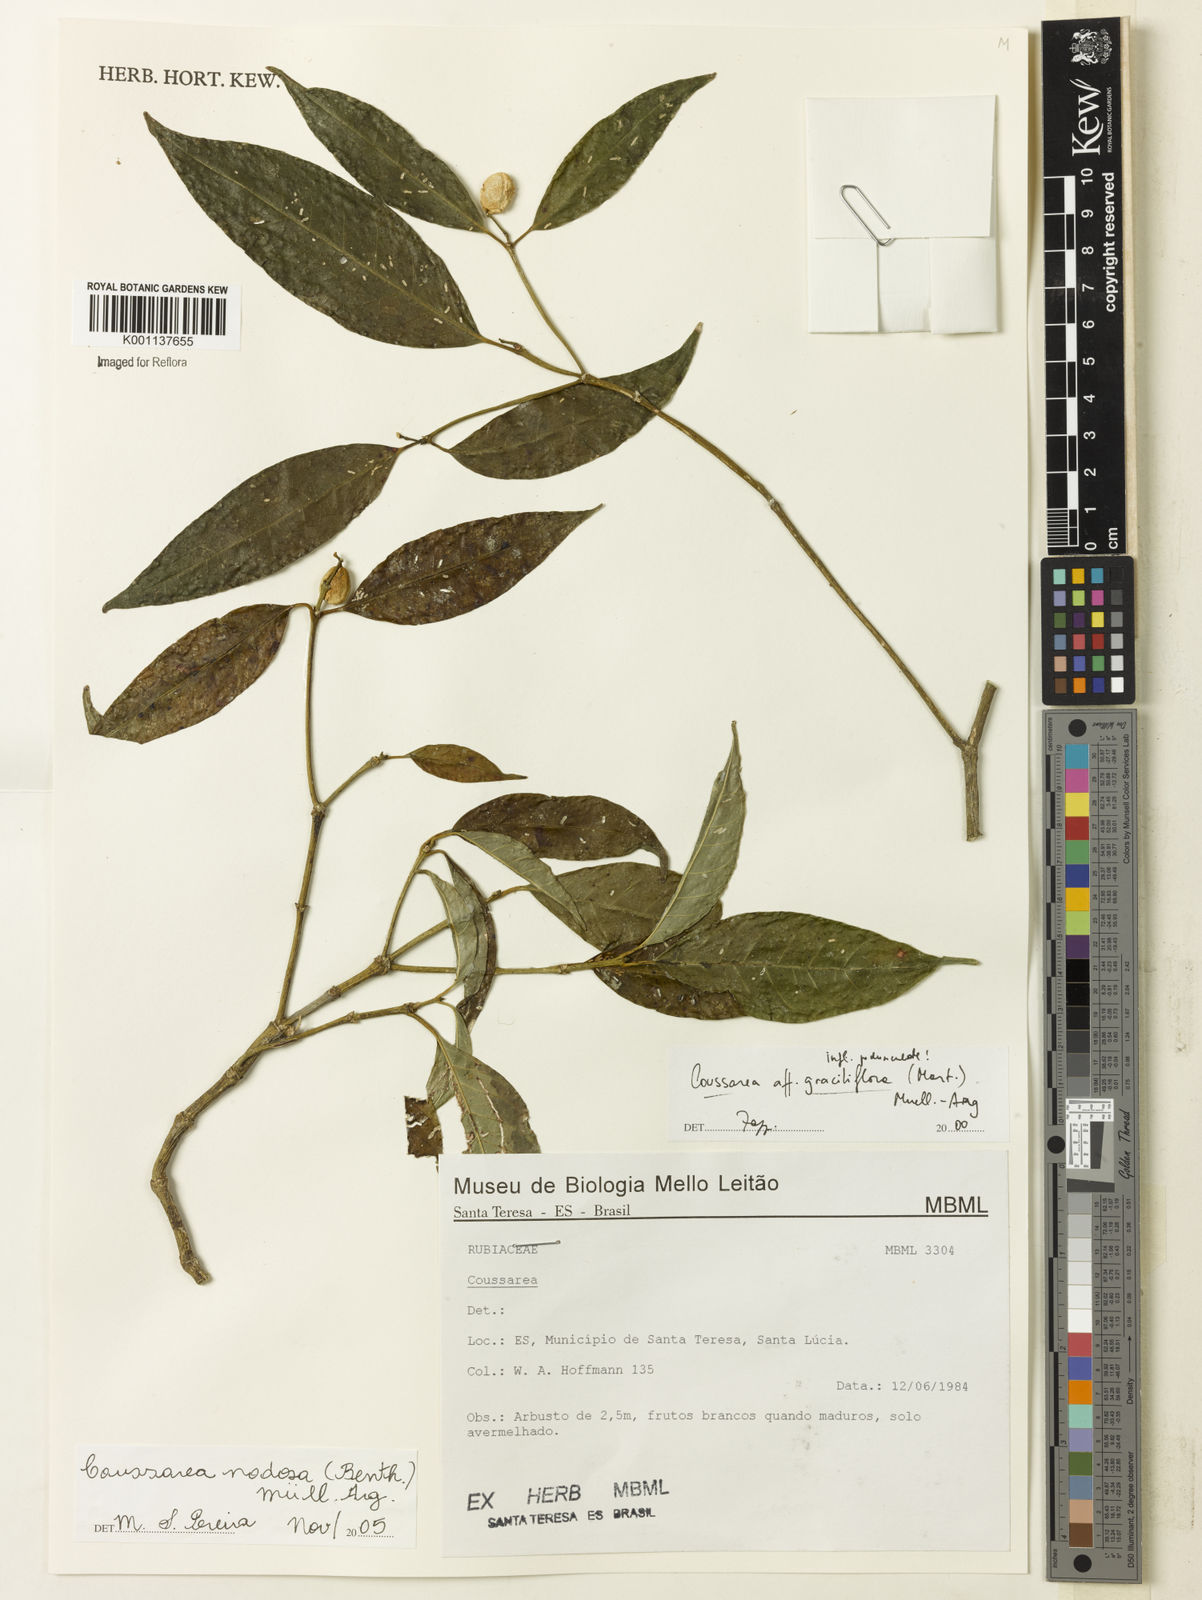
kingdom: Plantae
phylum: Tracheophyta
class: Magnoliopsida
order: Gentianales
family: Rubiaceae
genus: Coussarea
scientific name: Coussarea
